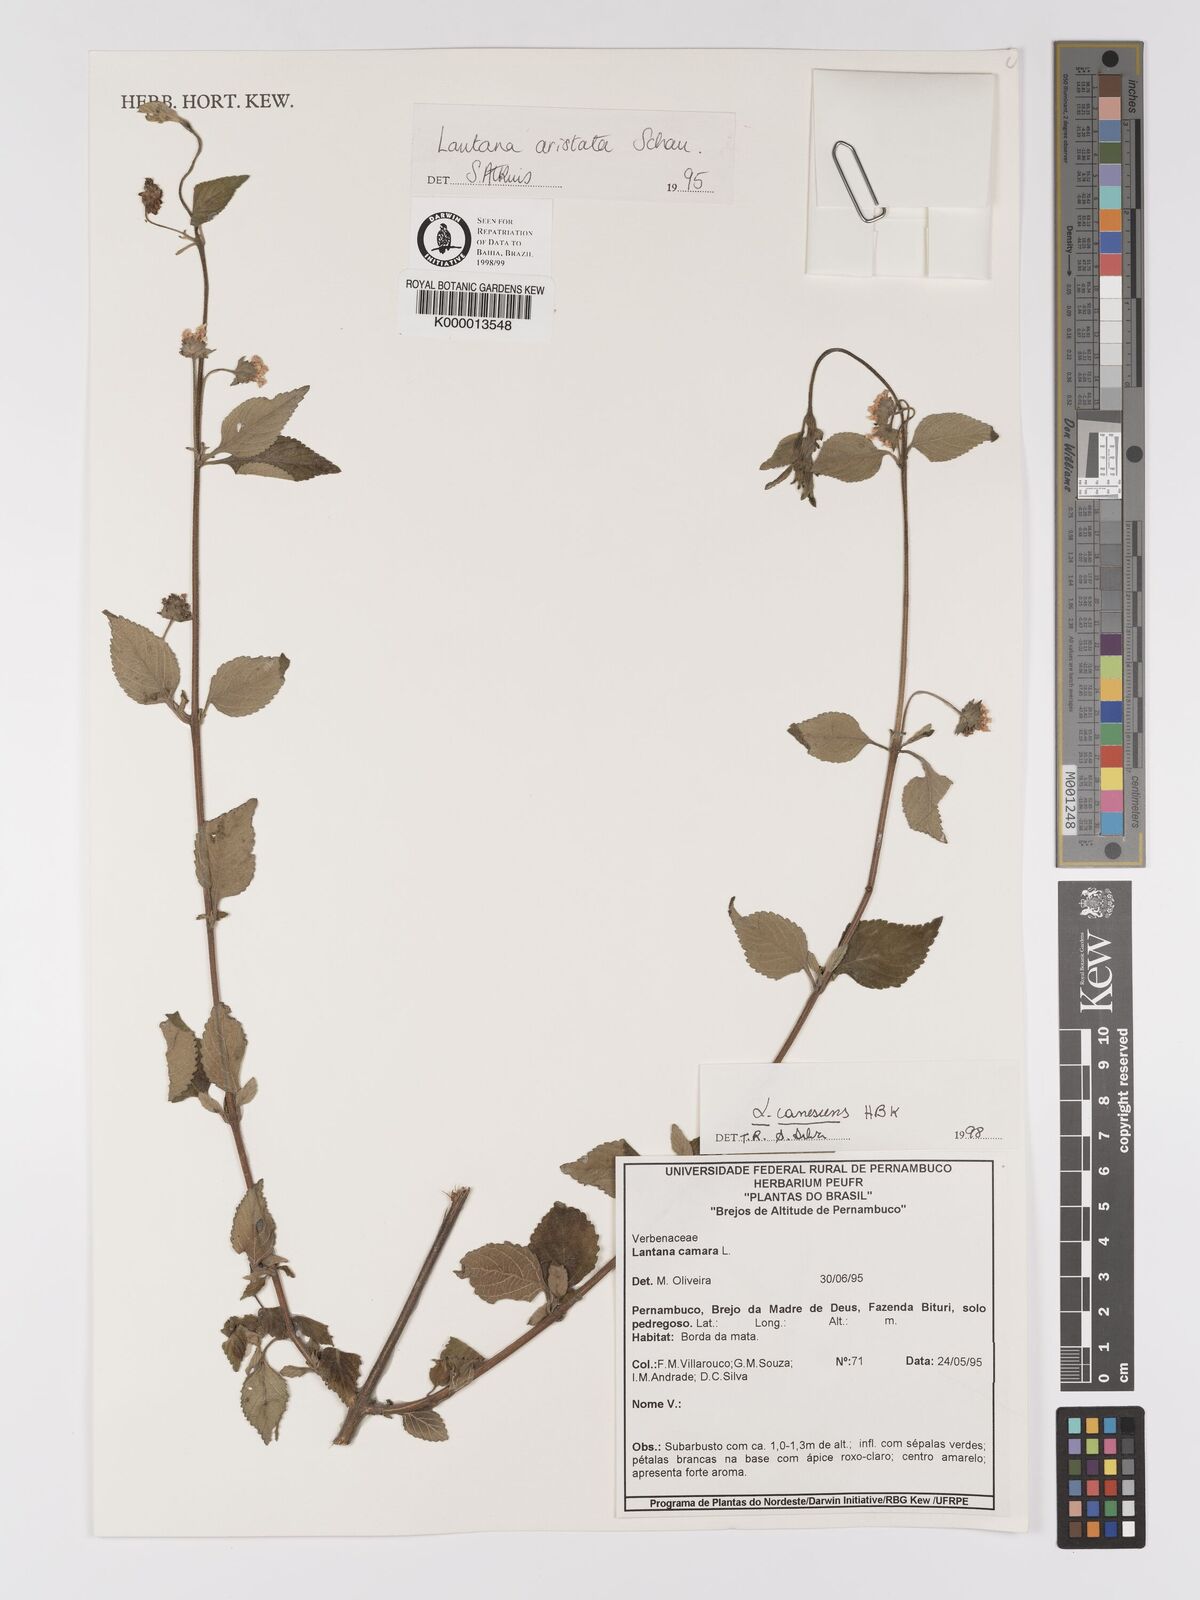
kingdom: Plantae
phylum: Tracheophyta
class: Magnoliopsida
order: Lamiales
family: Verbenaceae
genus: Lantana
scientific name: Lantana canescens
